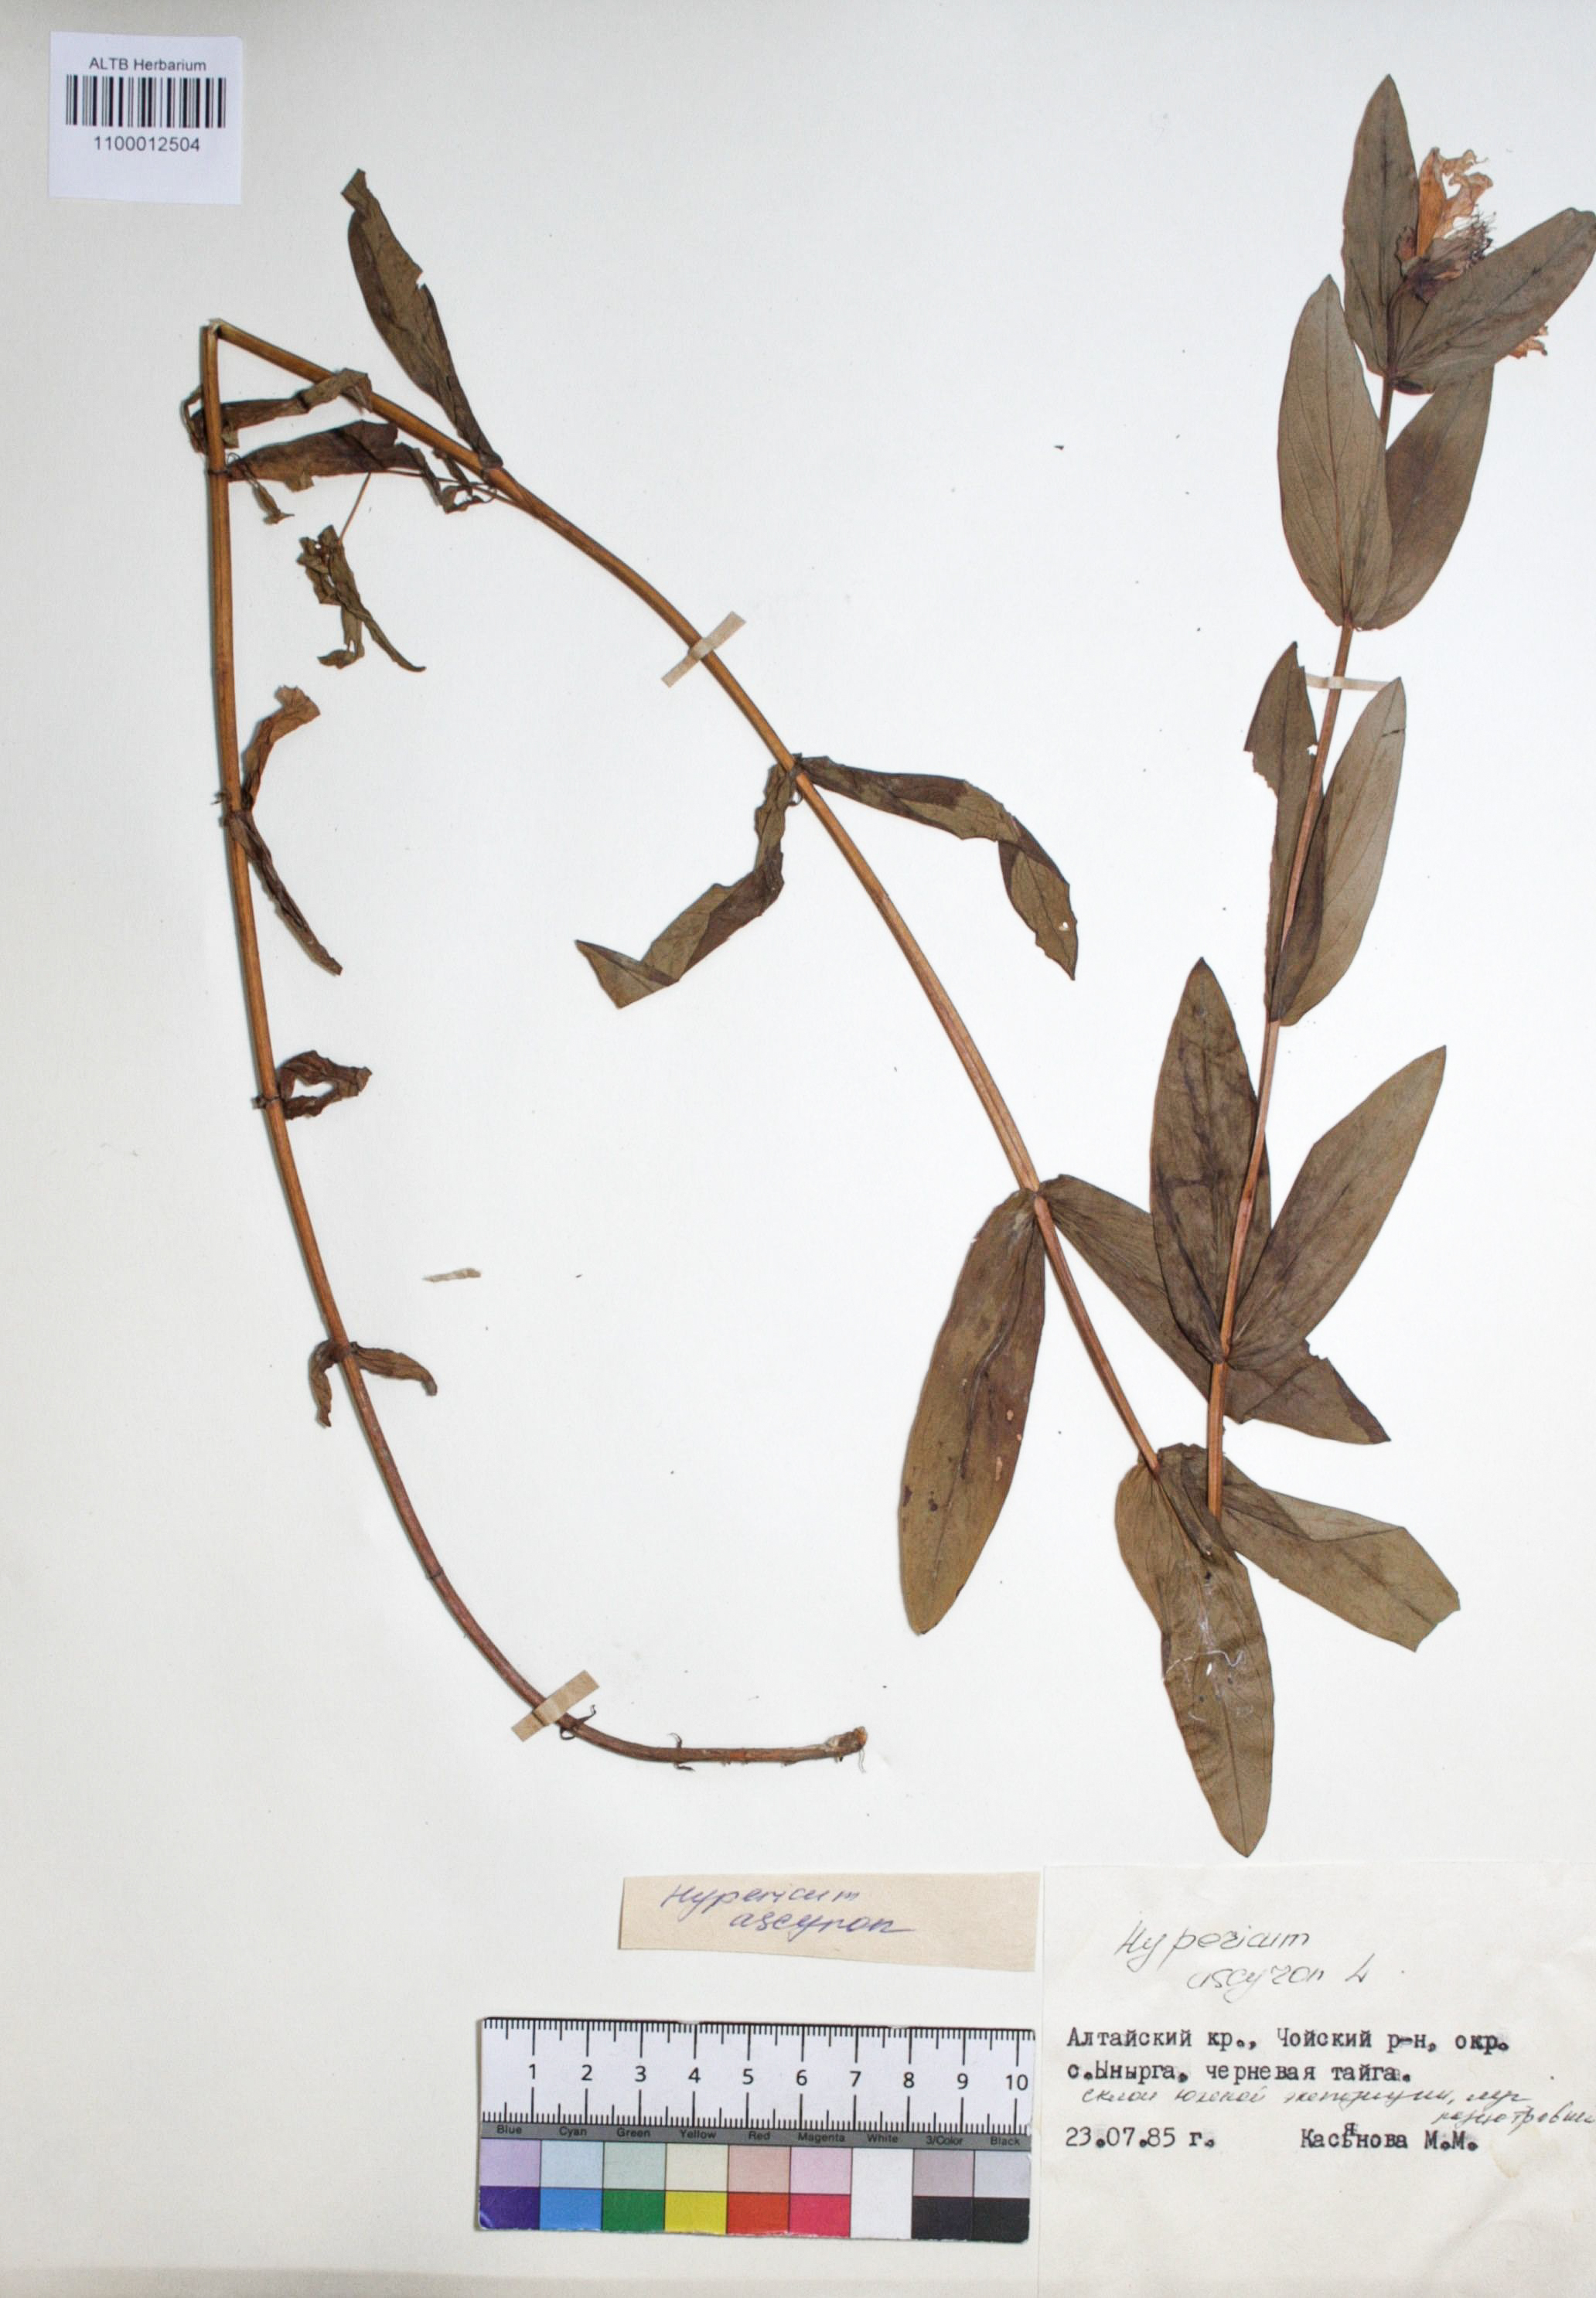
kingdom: Plantae
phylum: Tracheophyta
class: Magnoliopsida
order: Malpighiales
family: Hypericaceae
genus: Hypericum
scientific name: Hypericum ascyron
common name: Giant st. john's-wort
